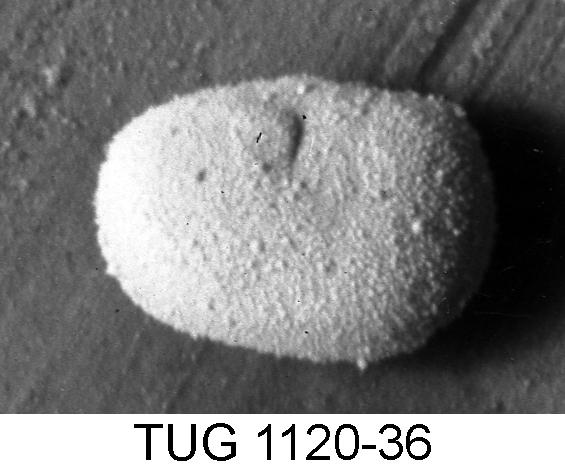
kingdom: Animalia
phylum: Arthropoda
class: Ostracoda
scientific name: Ostracoda
